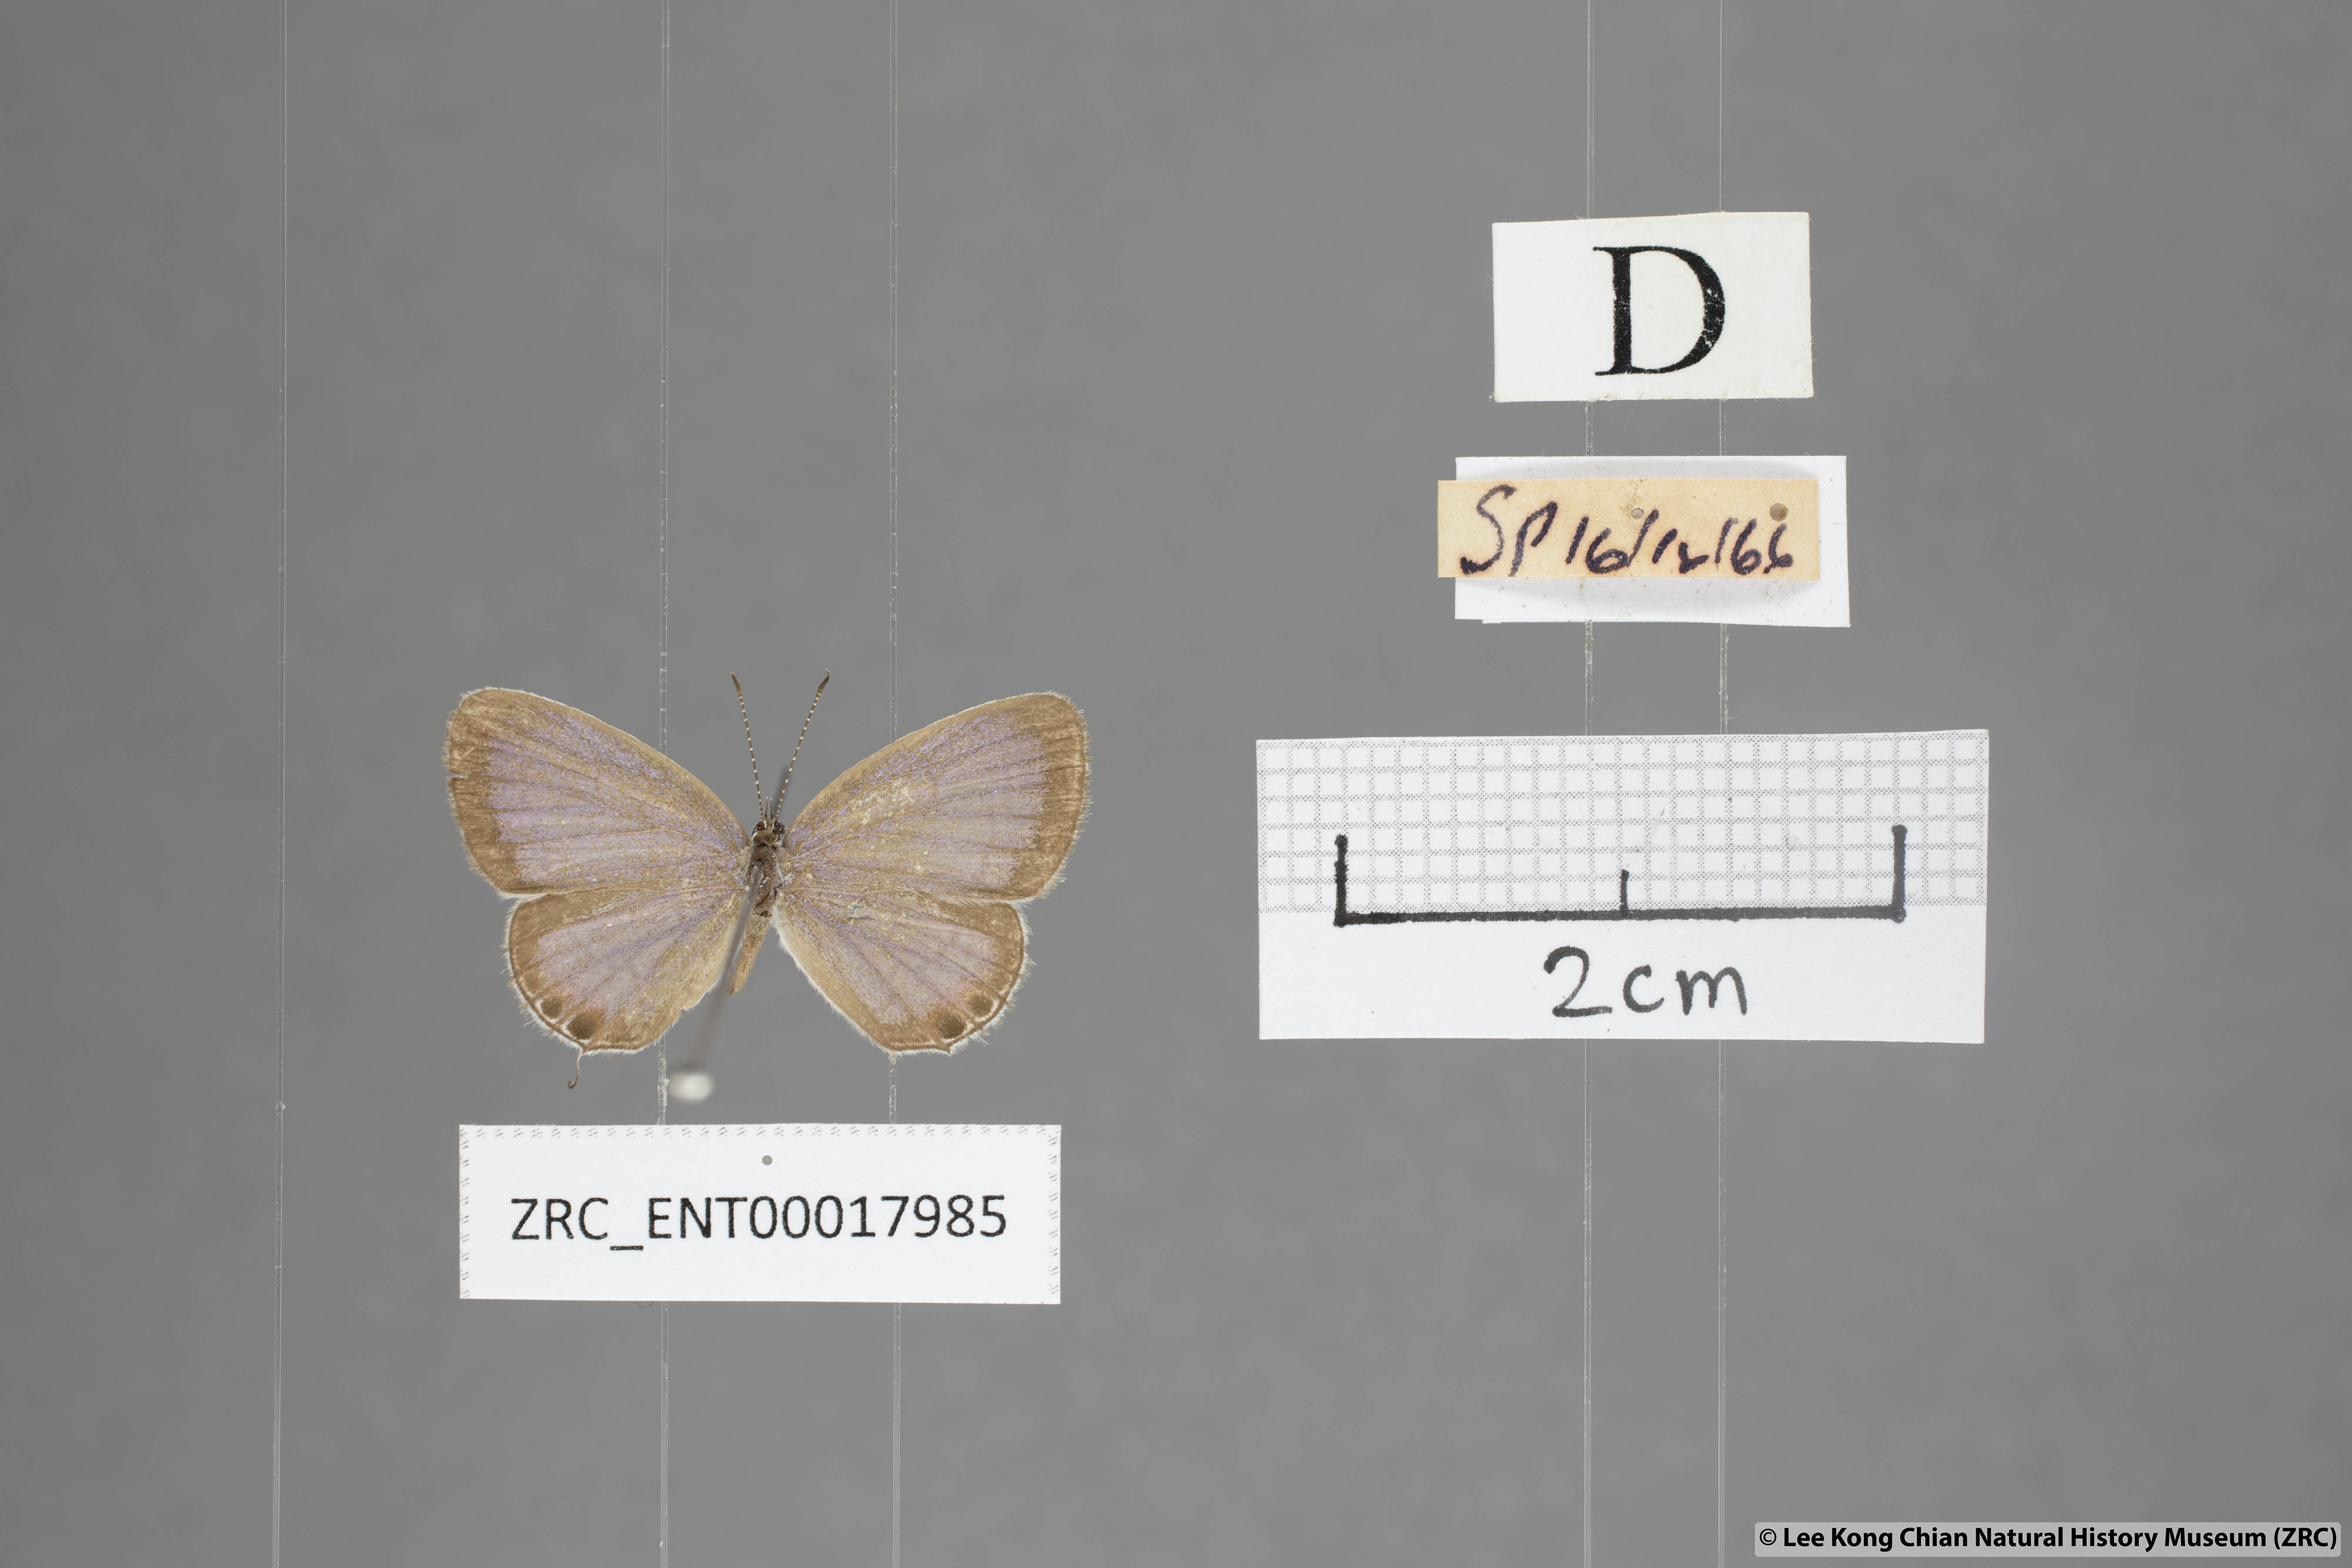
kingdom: Animalia
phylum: Arthropoda
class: Insecta
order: Lepidoptera
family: Lycaenidae
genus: Everes
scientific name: Everes lacturnus
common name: Orange-tipped pea-blue
